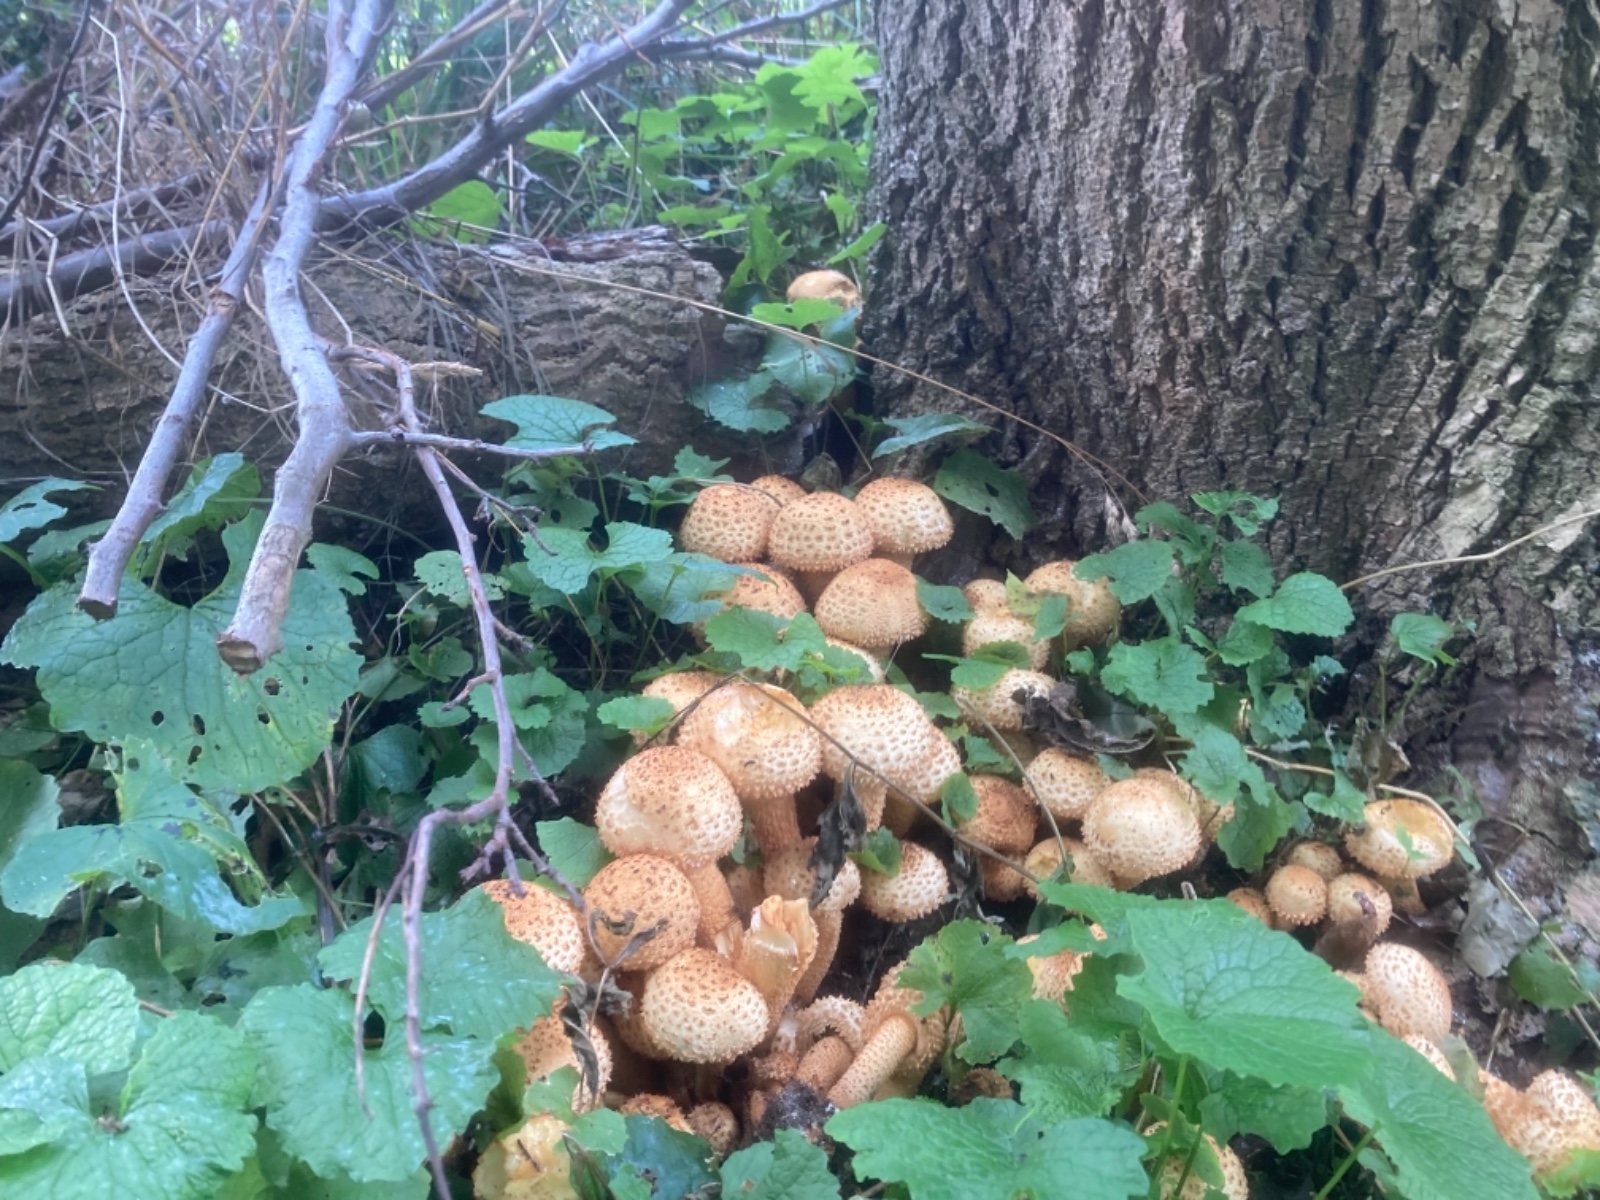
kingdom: Fungi
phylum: Basidiomycota
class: Agaricomycetes
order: Agaricales
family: Strophariaceae
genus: Pholiota
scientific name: Pholiota squarrosa
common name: krumskællet skælhat
